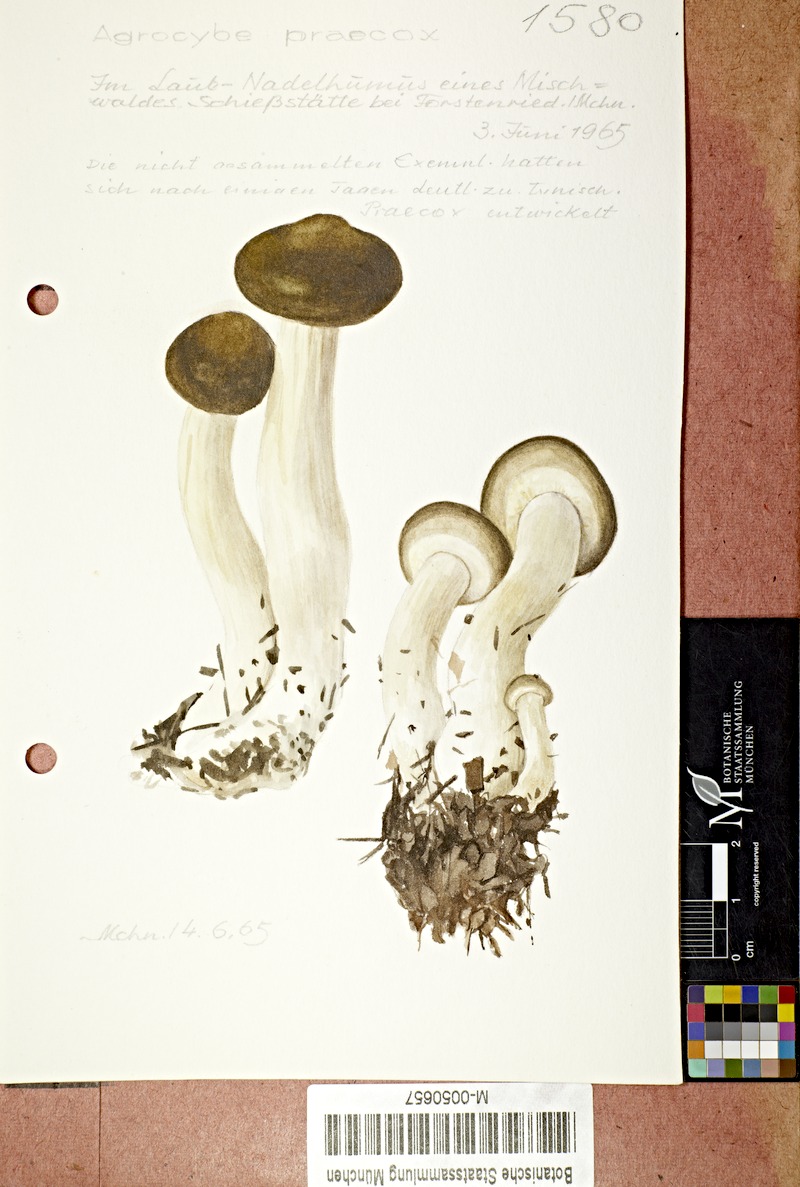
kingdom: Fungi
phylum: Basidiomycota
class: Agaricomycetes
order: Agaricales
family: Strophariaceae
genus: Agrocybe
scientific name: Agrocybe praecox
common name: Spring fieldcap
